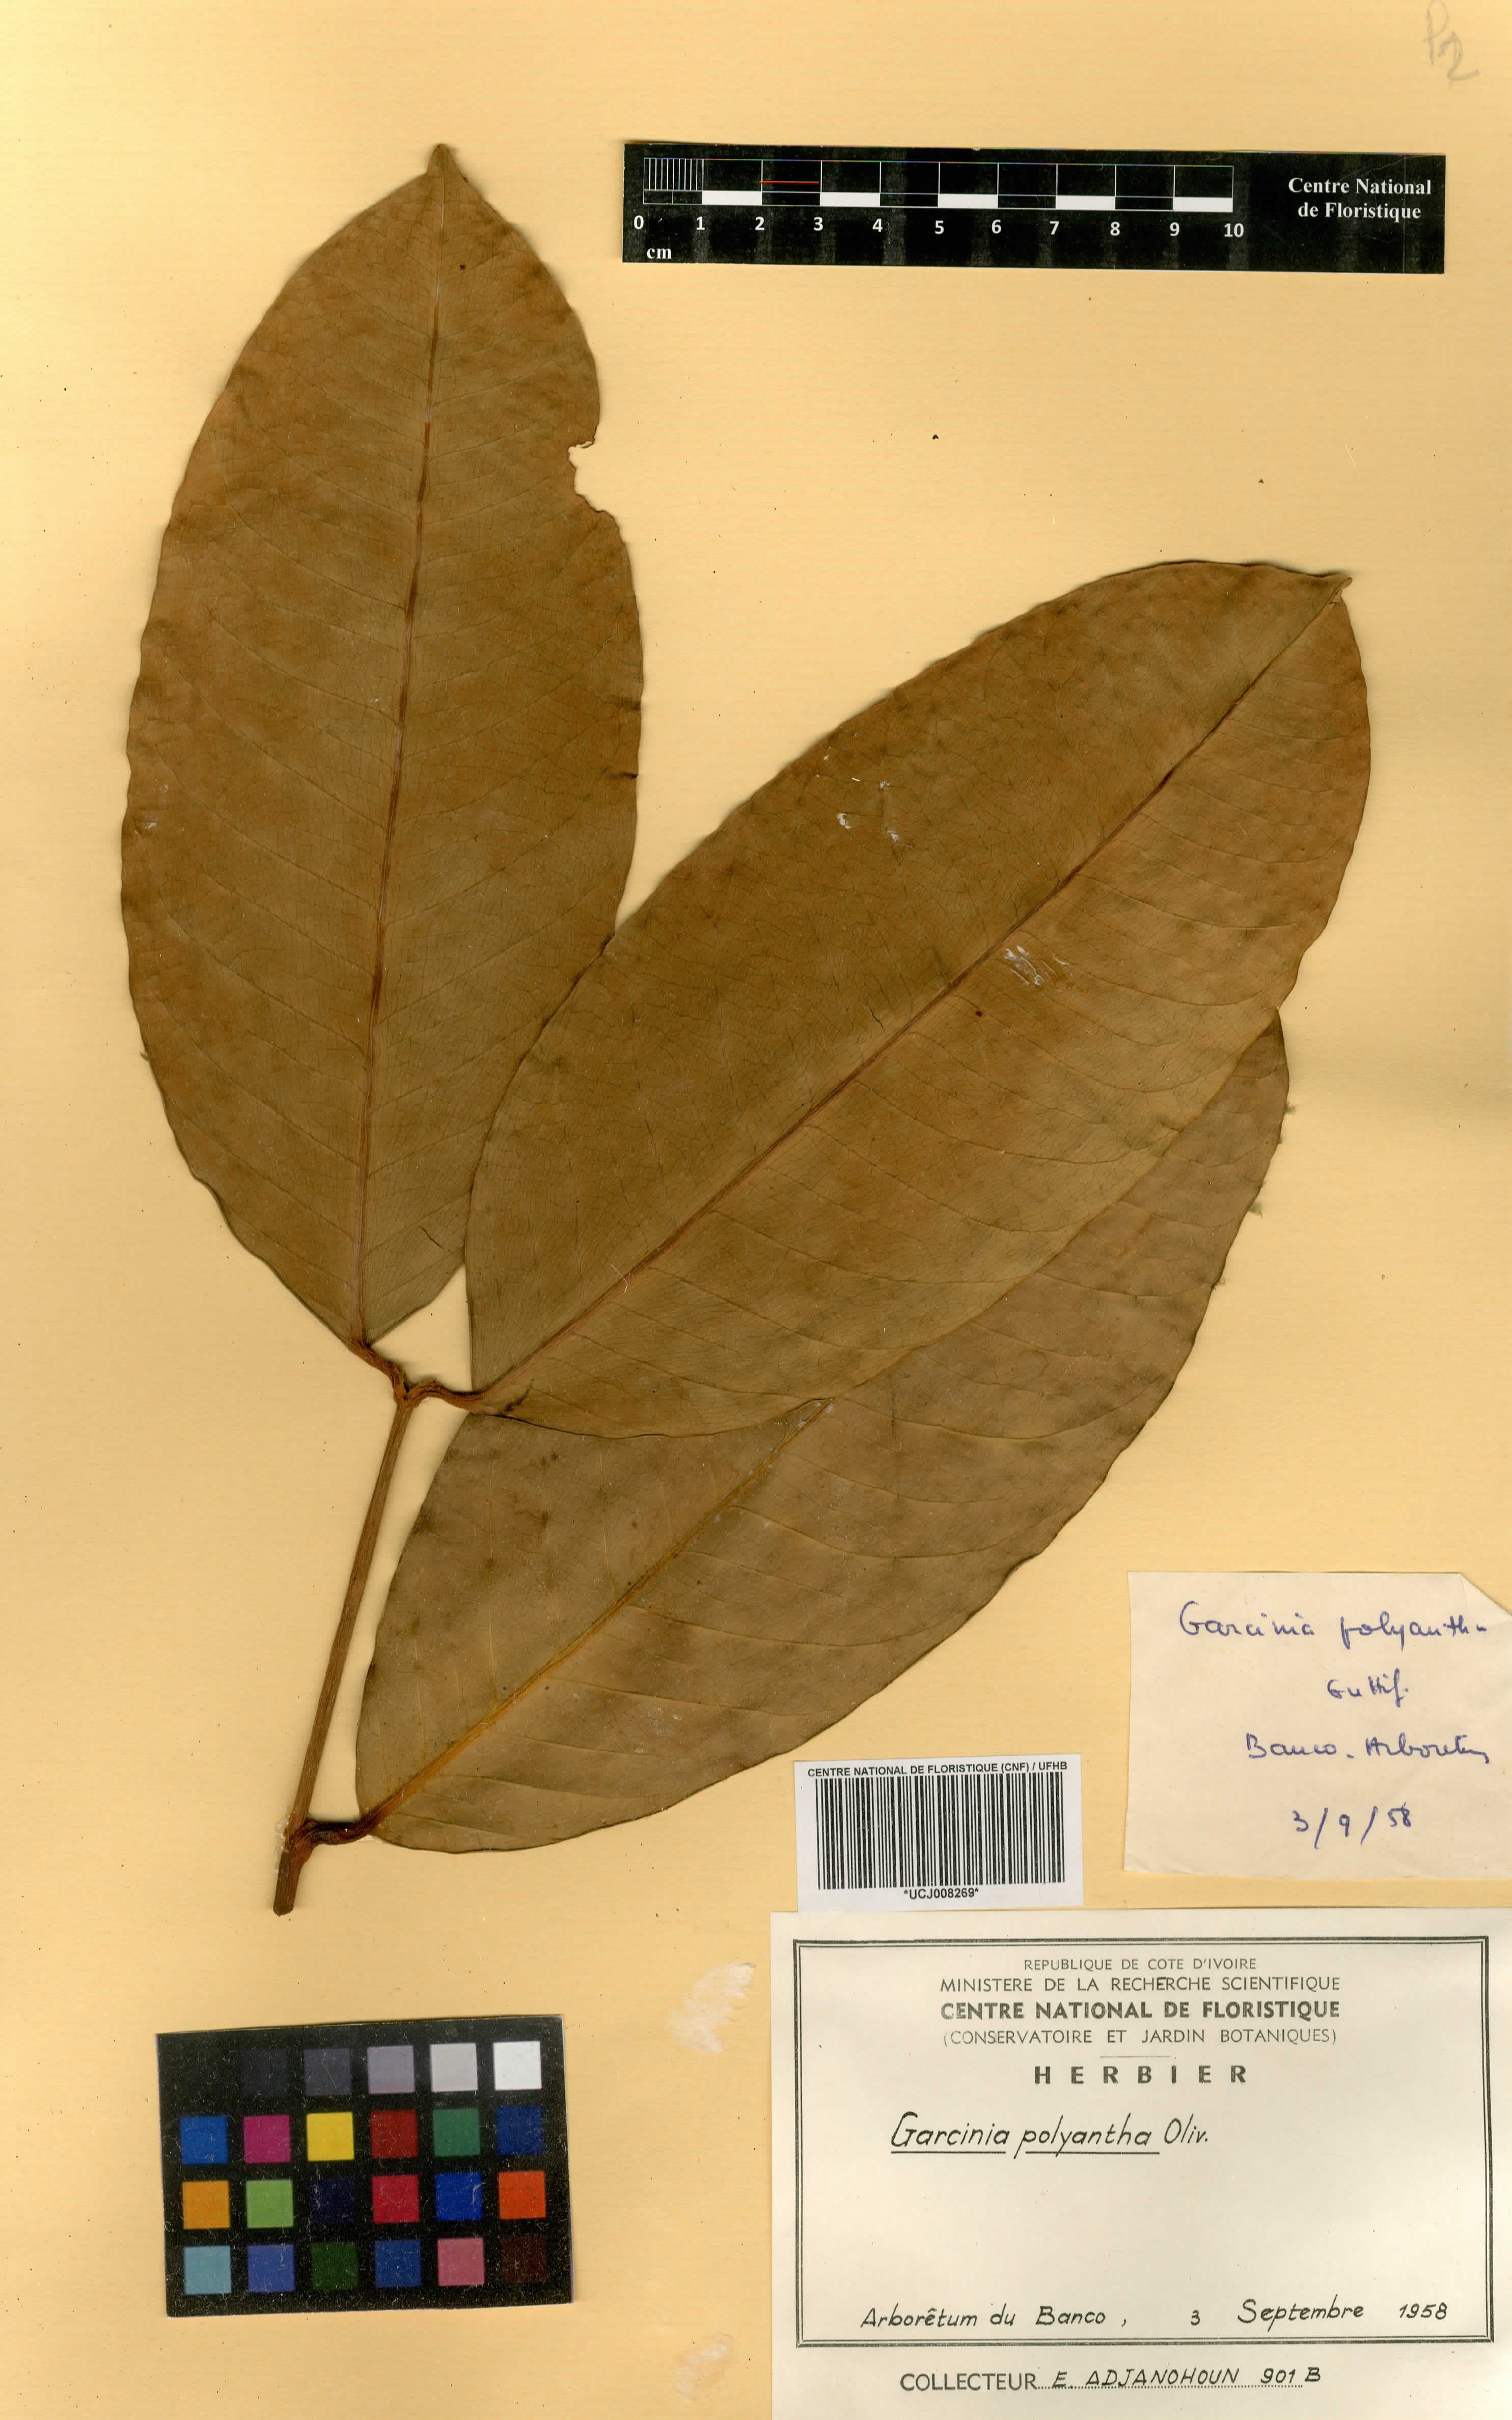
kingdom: Plantae
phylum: Tracheophyta
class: Magnoliopsida
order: Malpighiales
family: Clusiaceae
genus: Garcinia
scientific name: Garcinia smeathmannii
